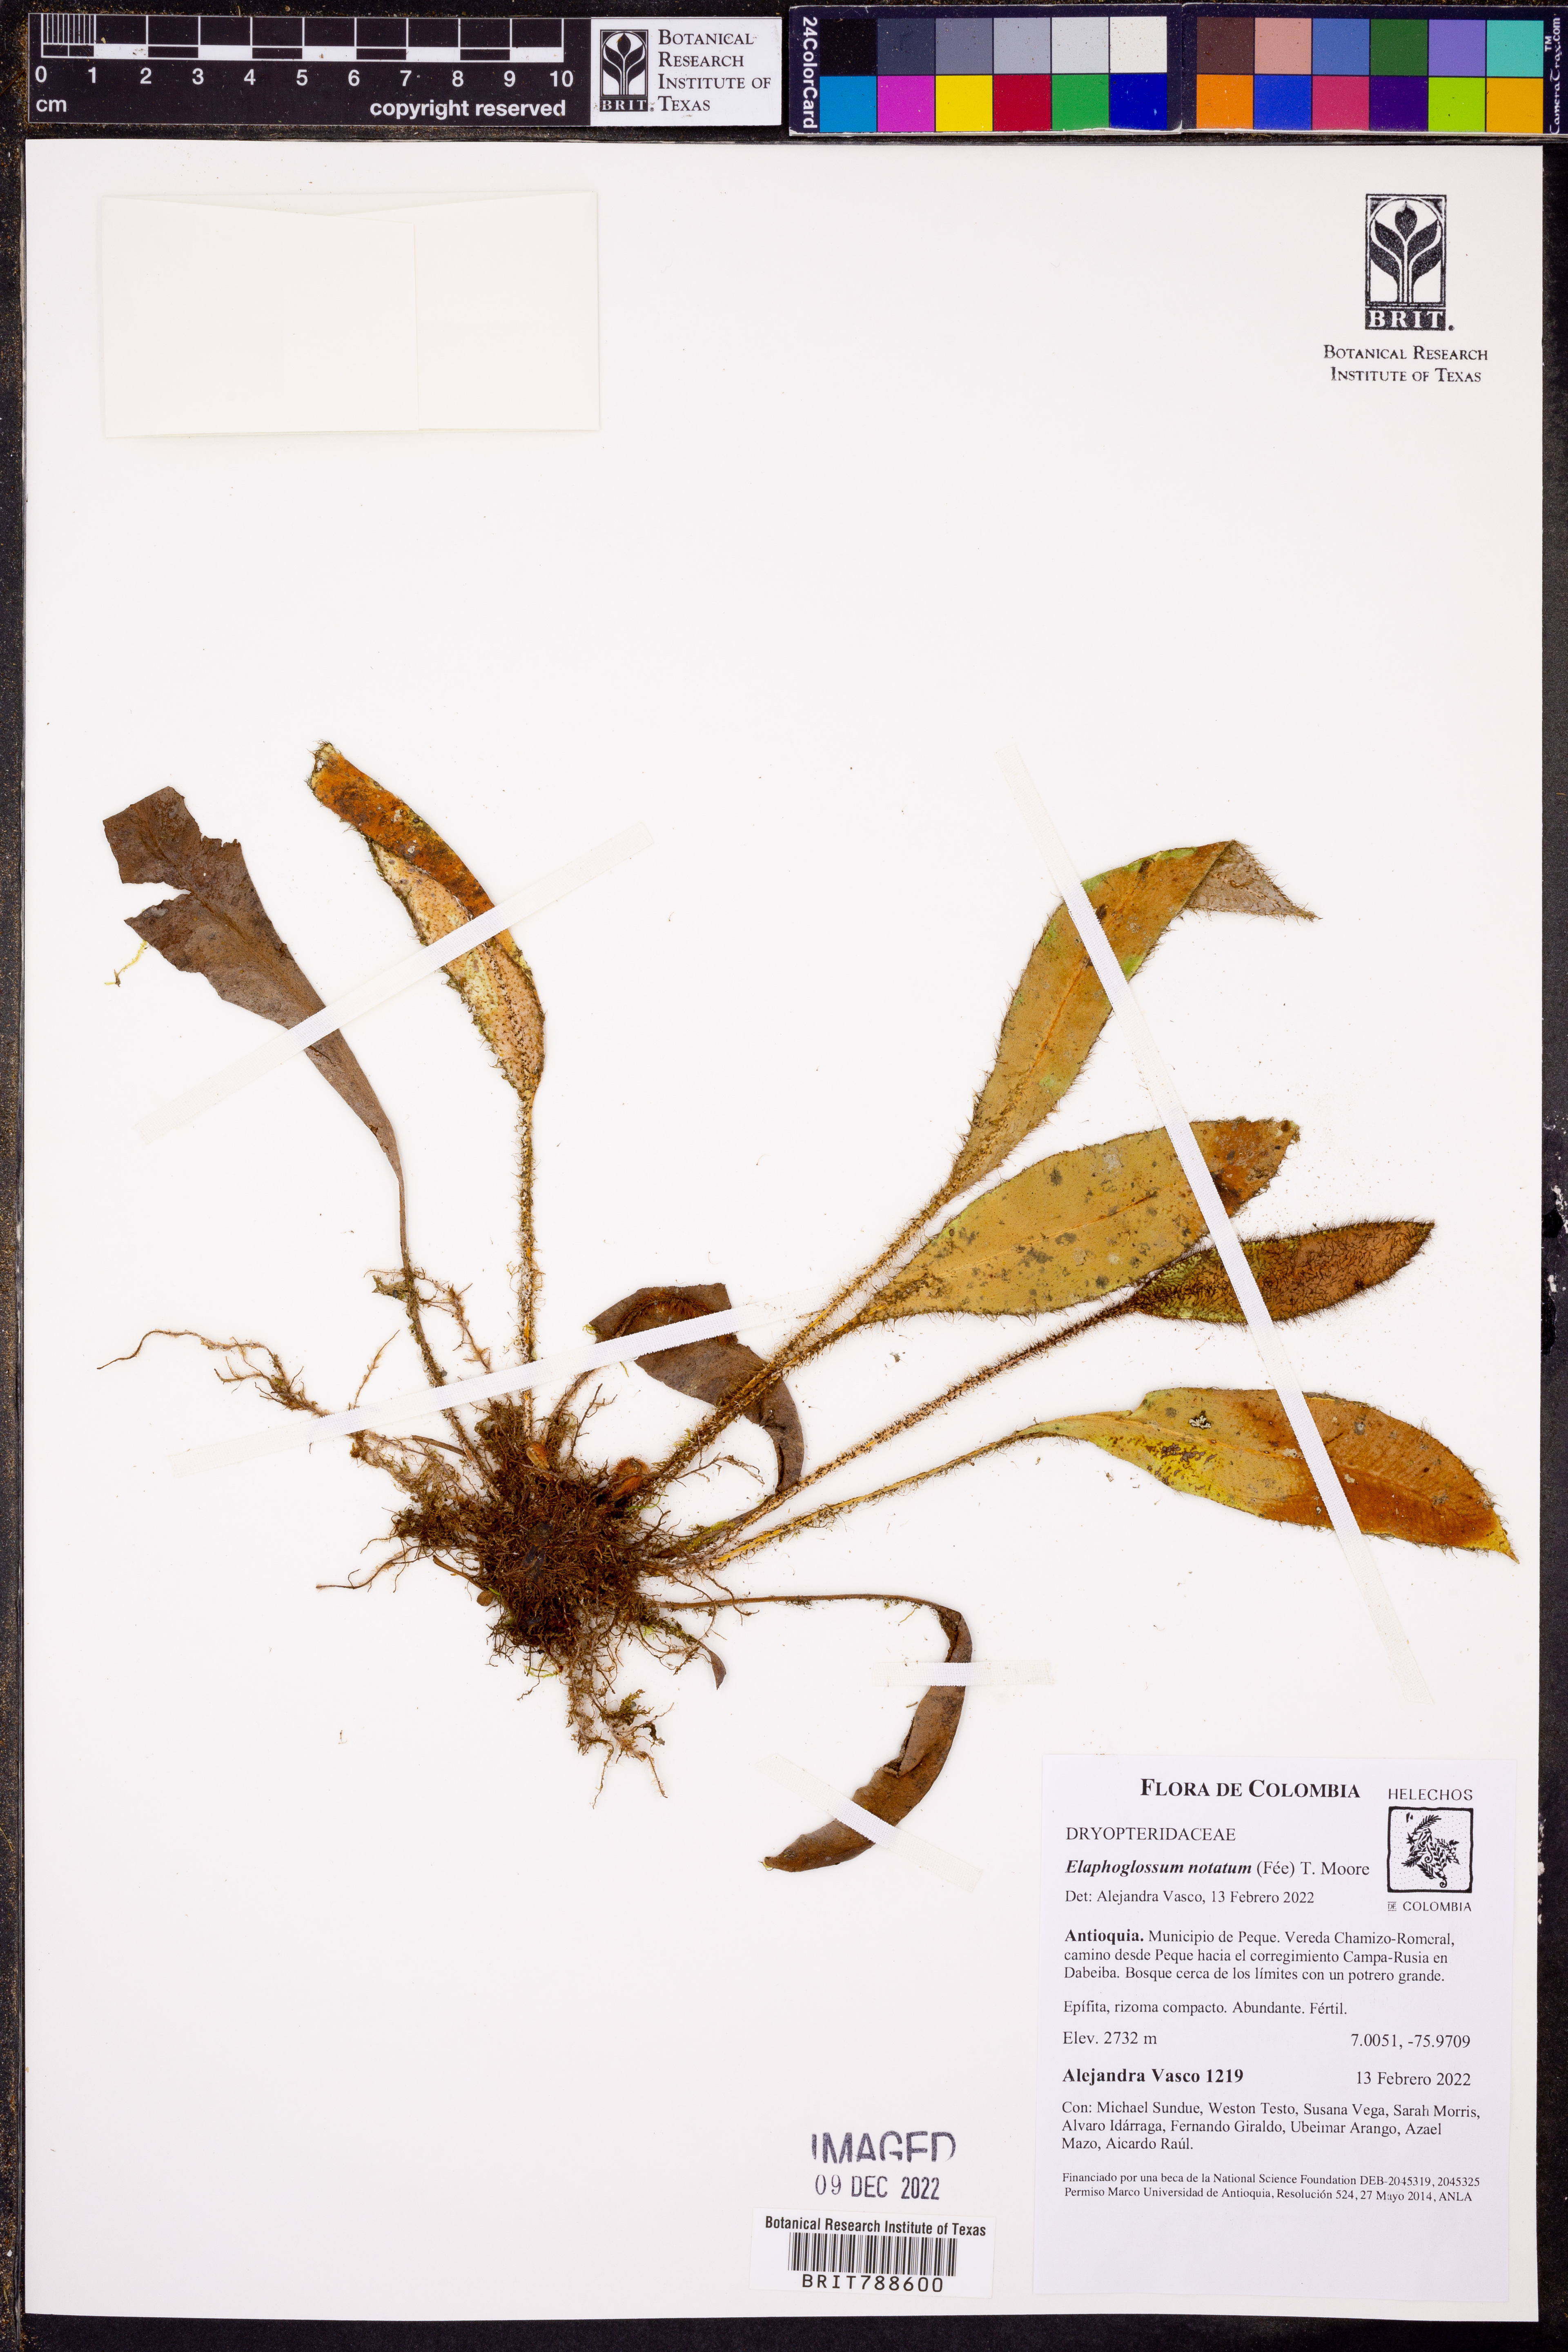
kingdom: Plantae
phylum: Tracheophyta
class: Polypodiopsida
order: Polypodiales
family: Dryopteridaceae
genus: Elaphoglossum
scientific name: Elaphoglossum notatum
